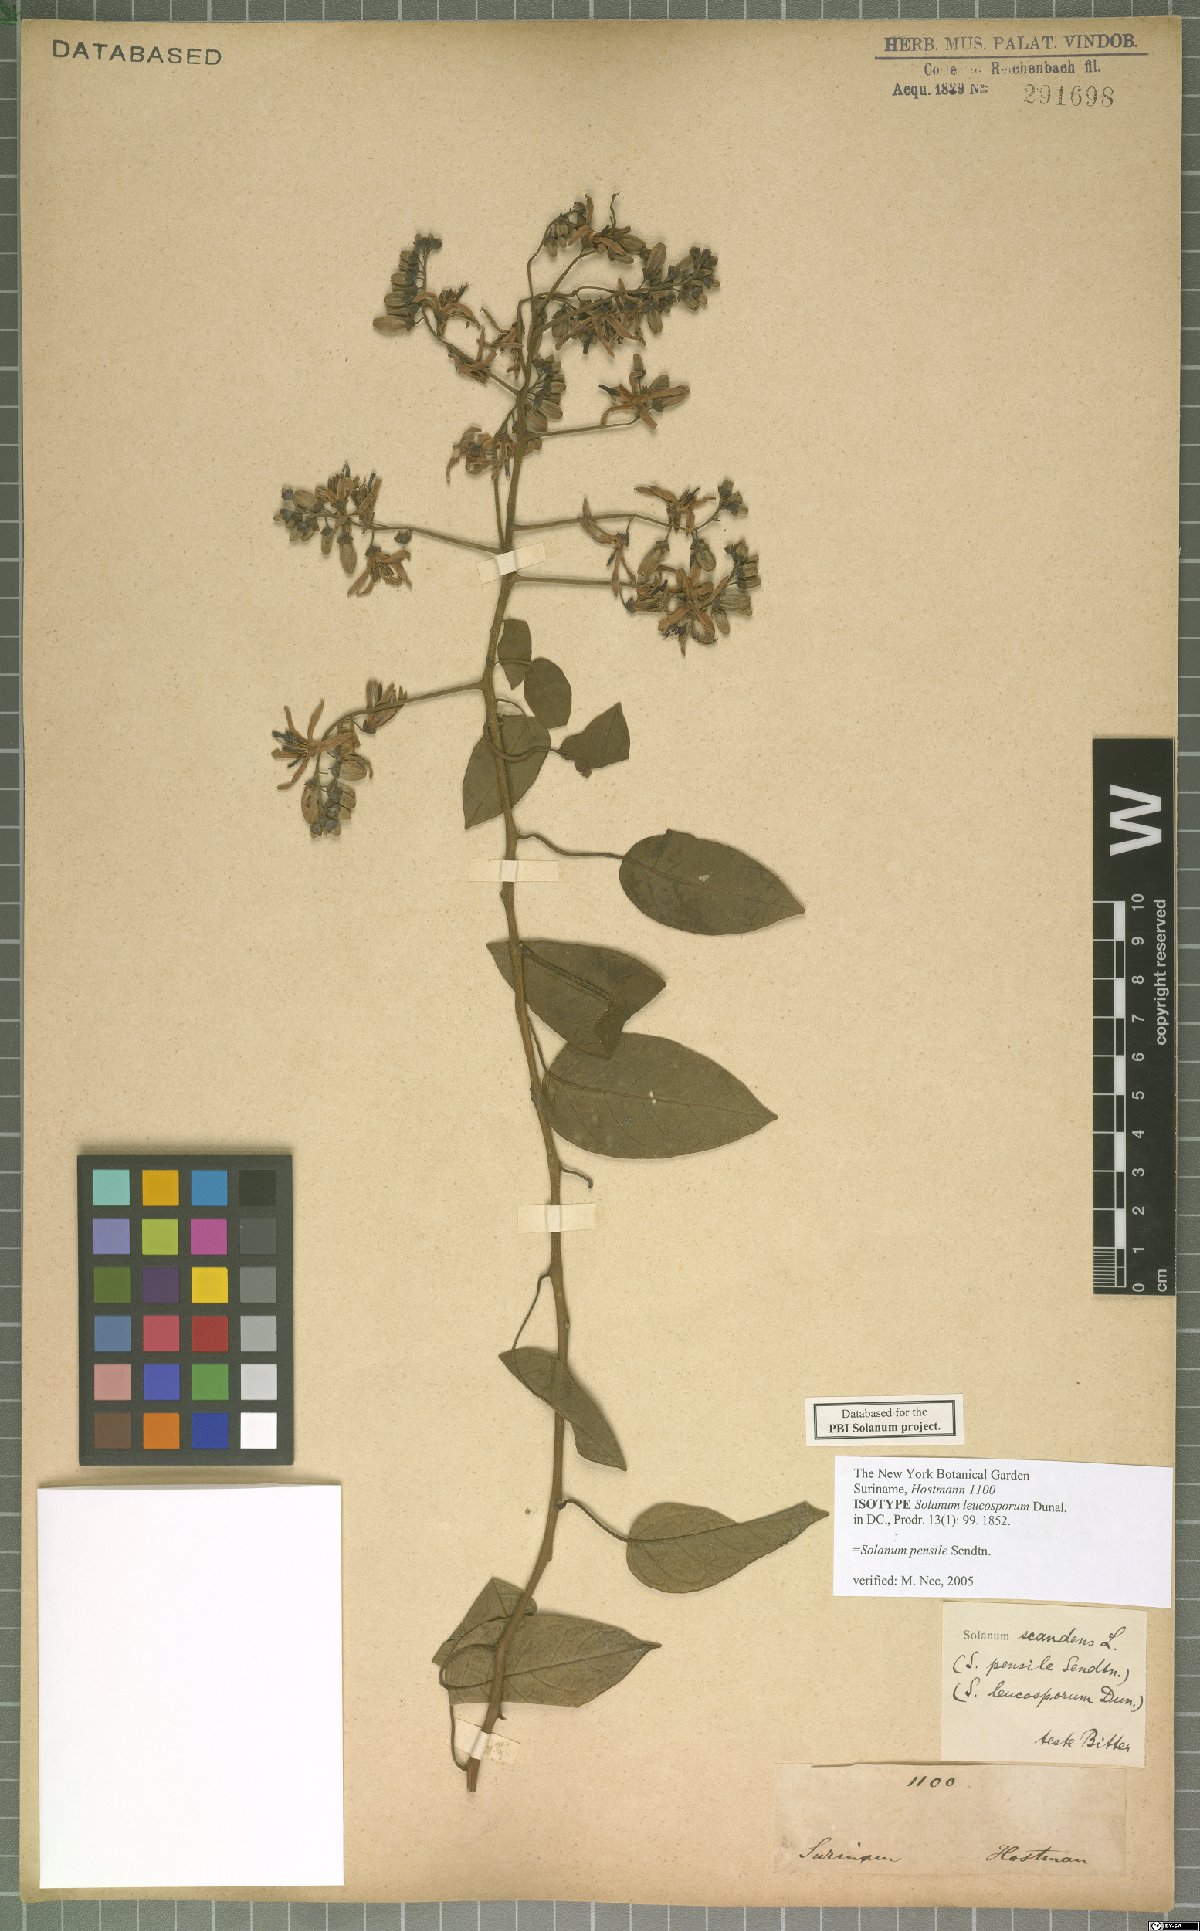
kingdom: Plantae
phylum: Tracheophyta
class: Magnoliopsida
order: Solanales
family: Solanaceae
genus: Solanum
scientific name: Solanum uncinellum
